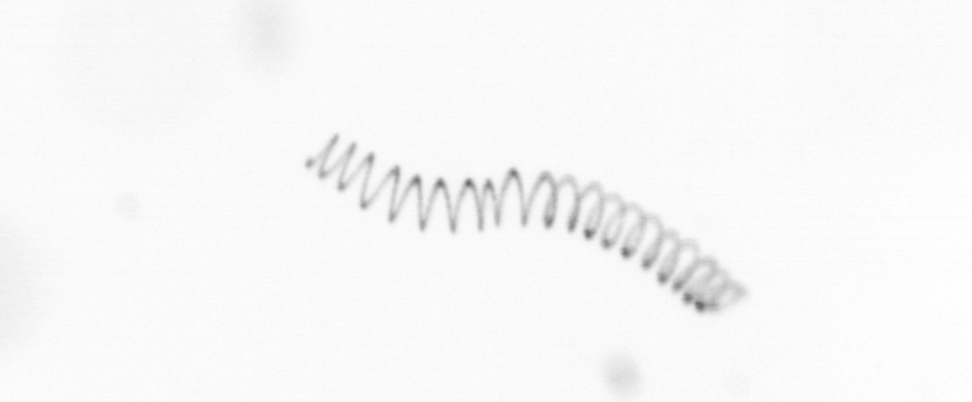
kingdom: Chromista
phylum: Ochrophyta
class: Bacillariophyceae
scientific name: Bacillariophyceae
